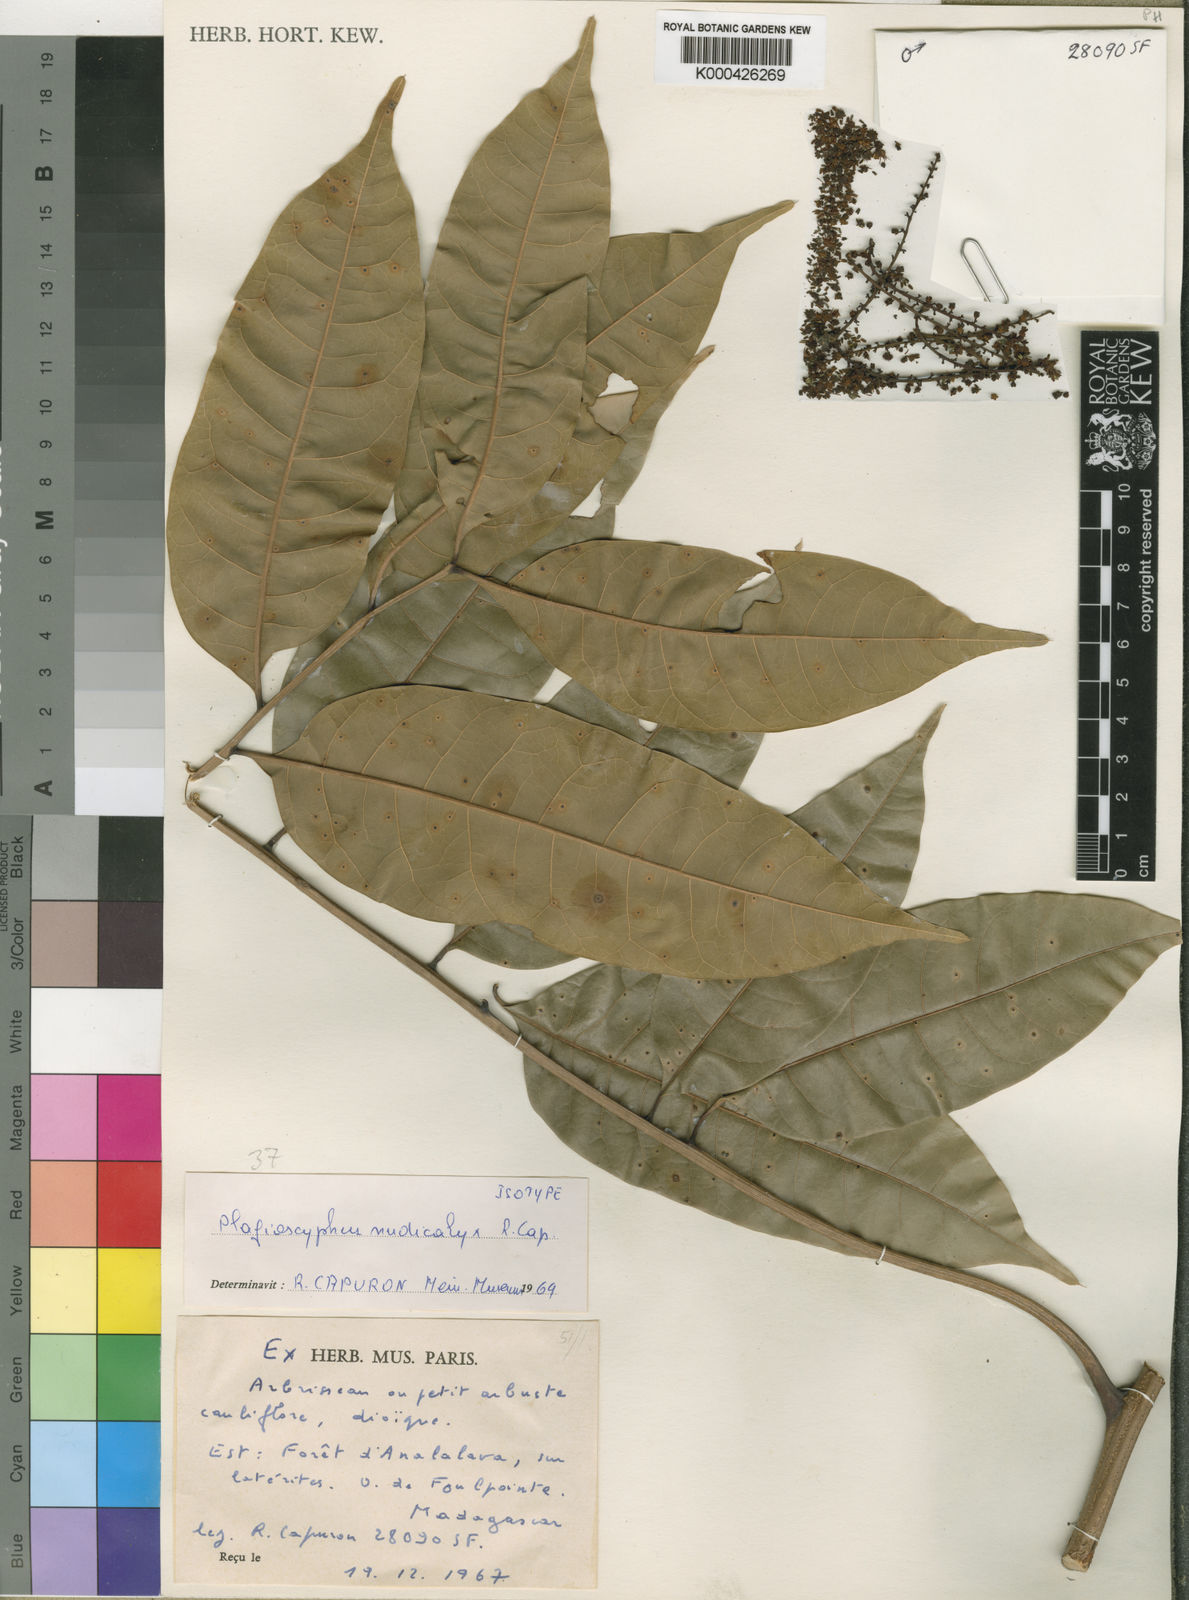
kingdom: Plantae
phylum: Tracheophyta
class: Magnoliopsida
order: Sapindales
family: Sapindaceae
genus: Plagioscyphus
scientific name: Plagioscyphus
